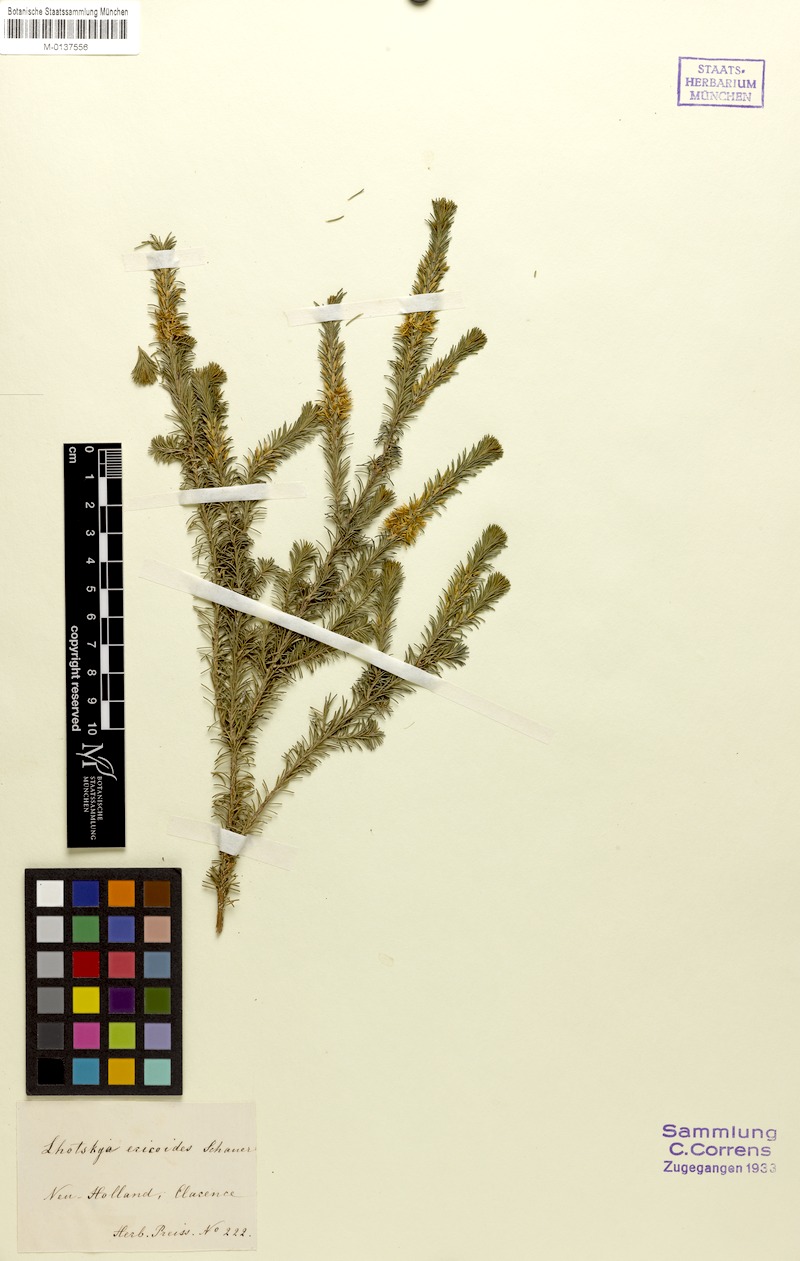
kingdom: Plantae
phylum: Tracheophyta
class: Magnoliopsida
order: Myrtales
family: Myrtaceae
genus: Calytrix
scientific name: Calytrix acutifolia
